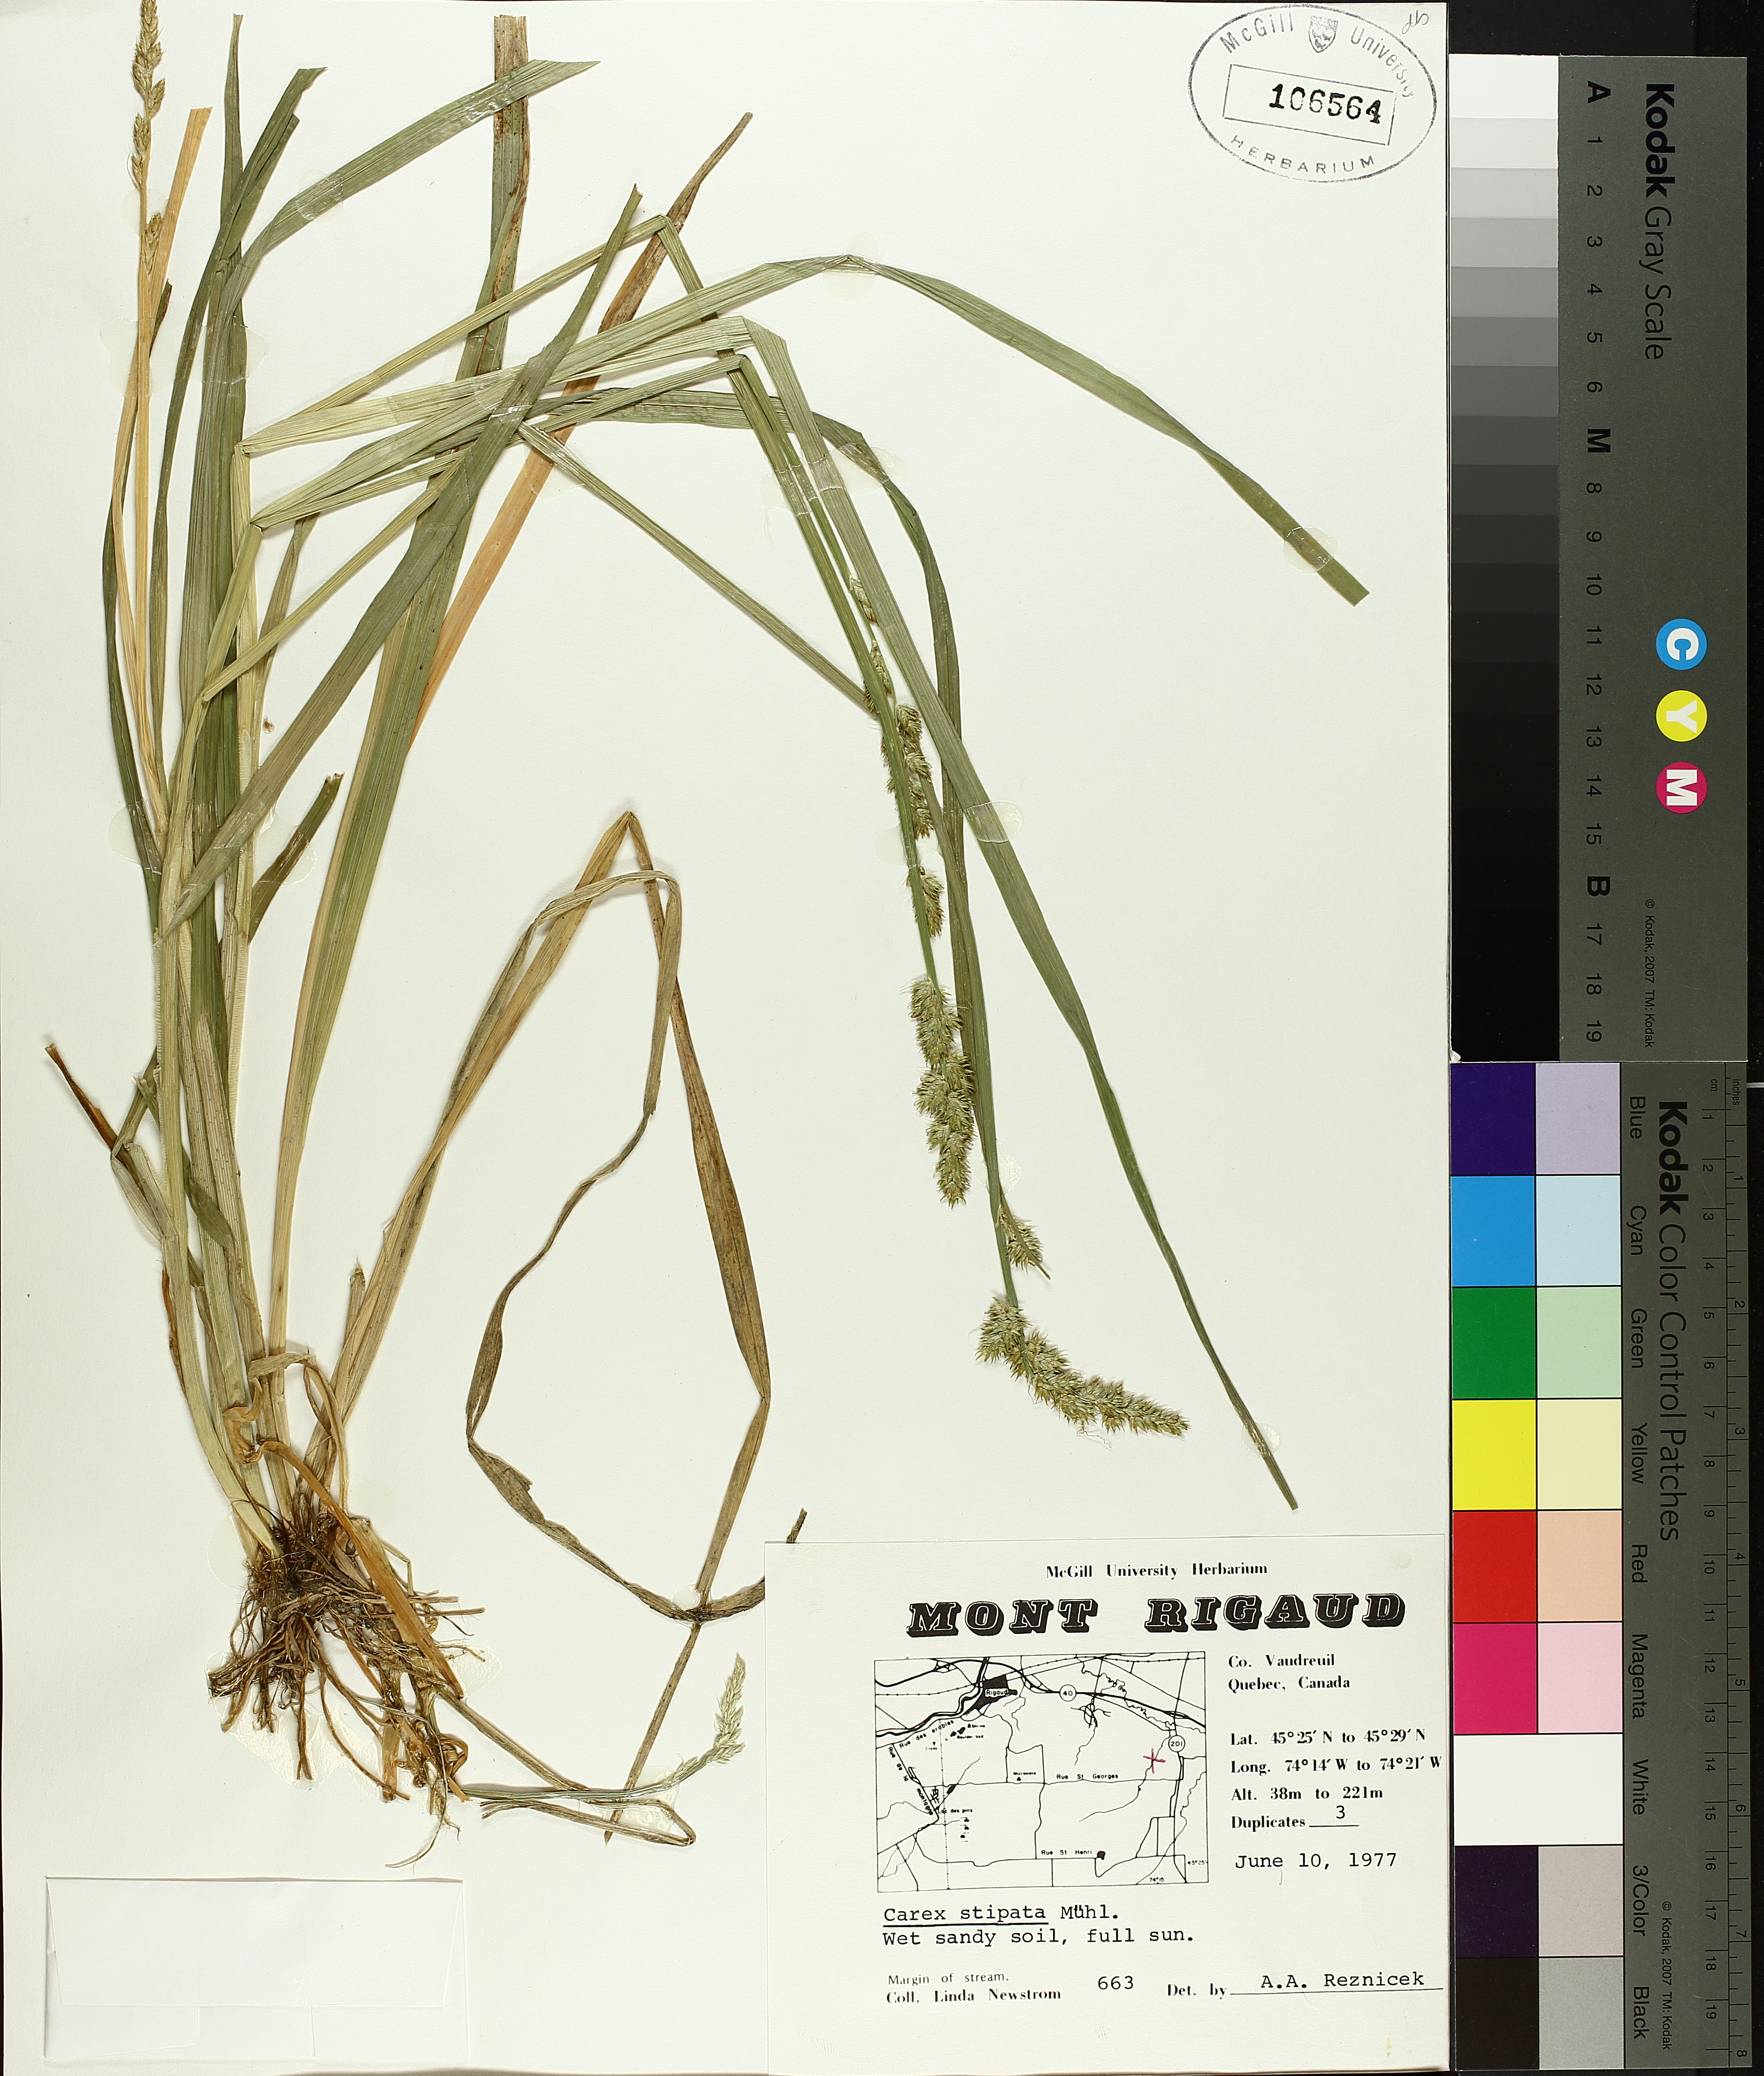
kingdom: Plantae
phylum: Tracheophyta
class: Liliopsida
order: Poales
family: Cyperaceae
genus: Carex
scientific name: Carex stipata
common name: Awl-fruited sedge
